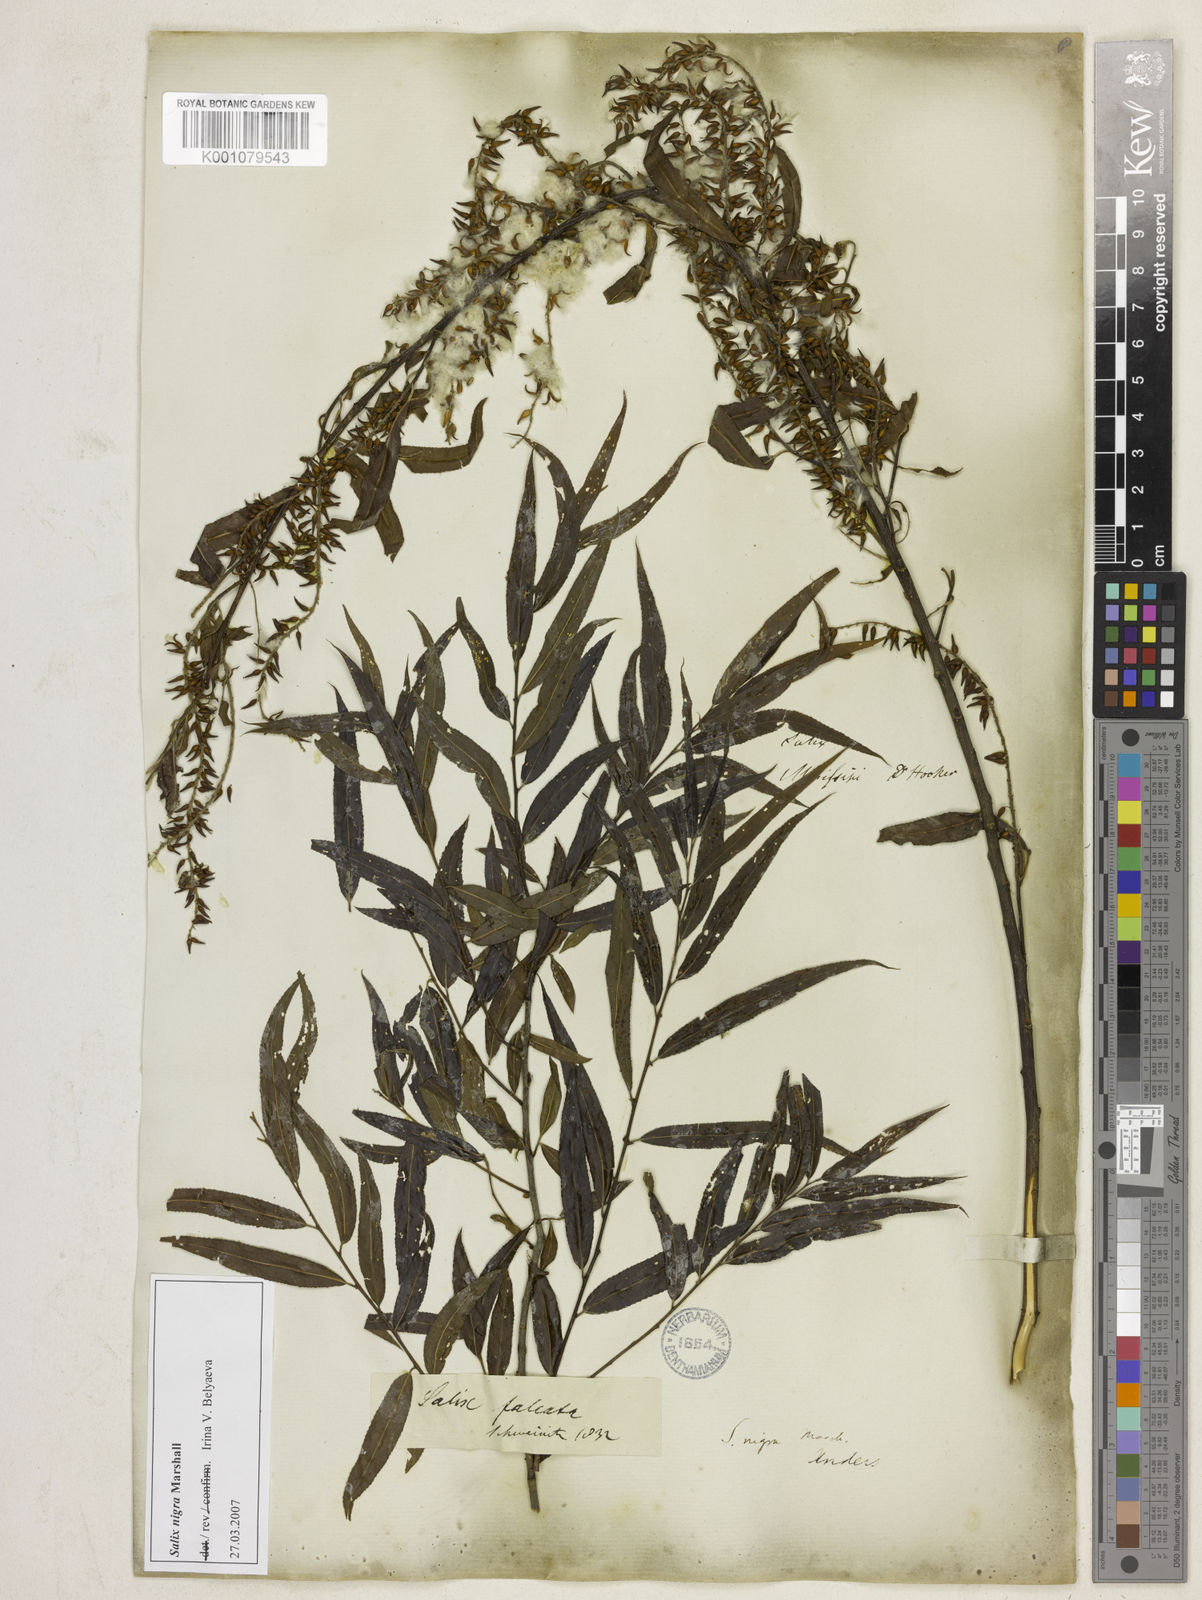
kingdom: Plantae
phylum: Tracheophyta
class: Magnoliopsida
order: Malpighiales
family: Salicaceae
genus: Salix
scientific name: Salix nigra
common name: Black willow
